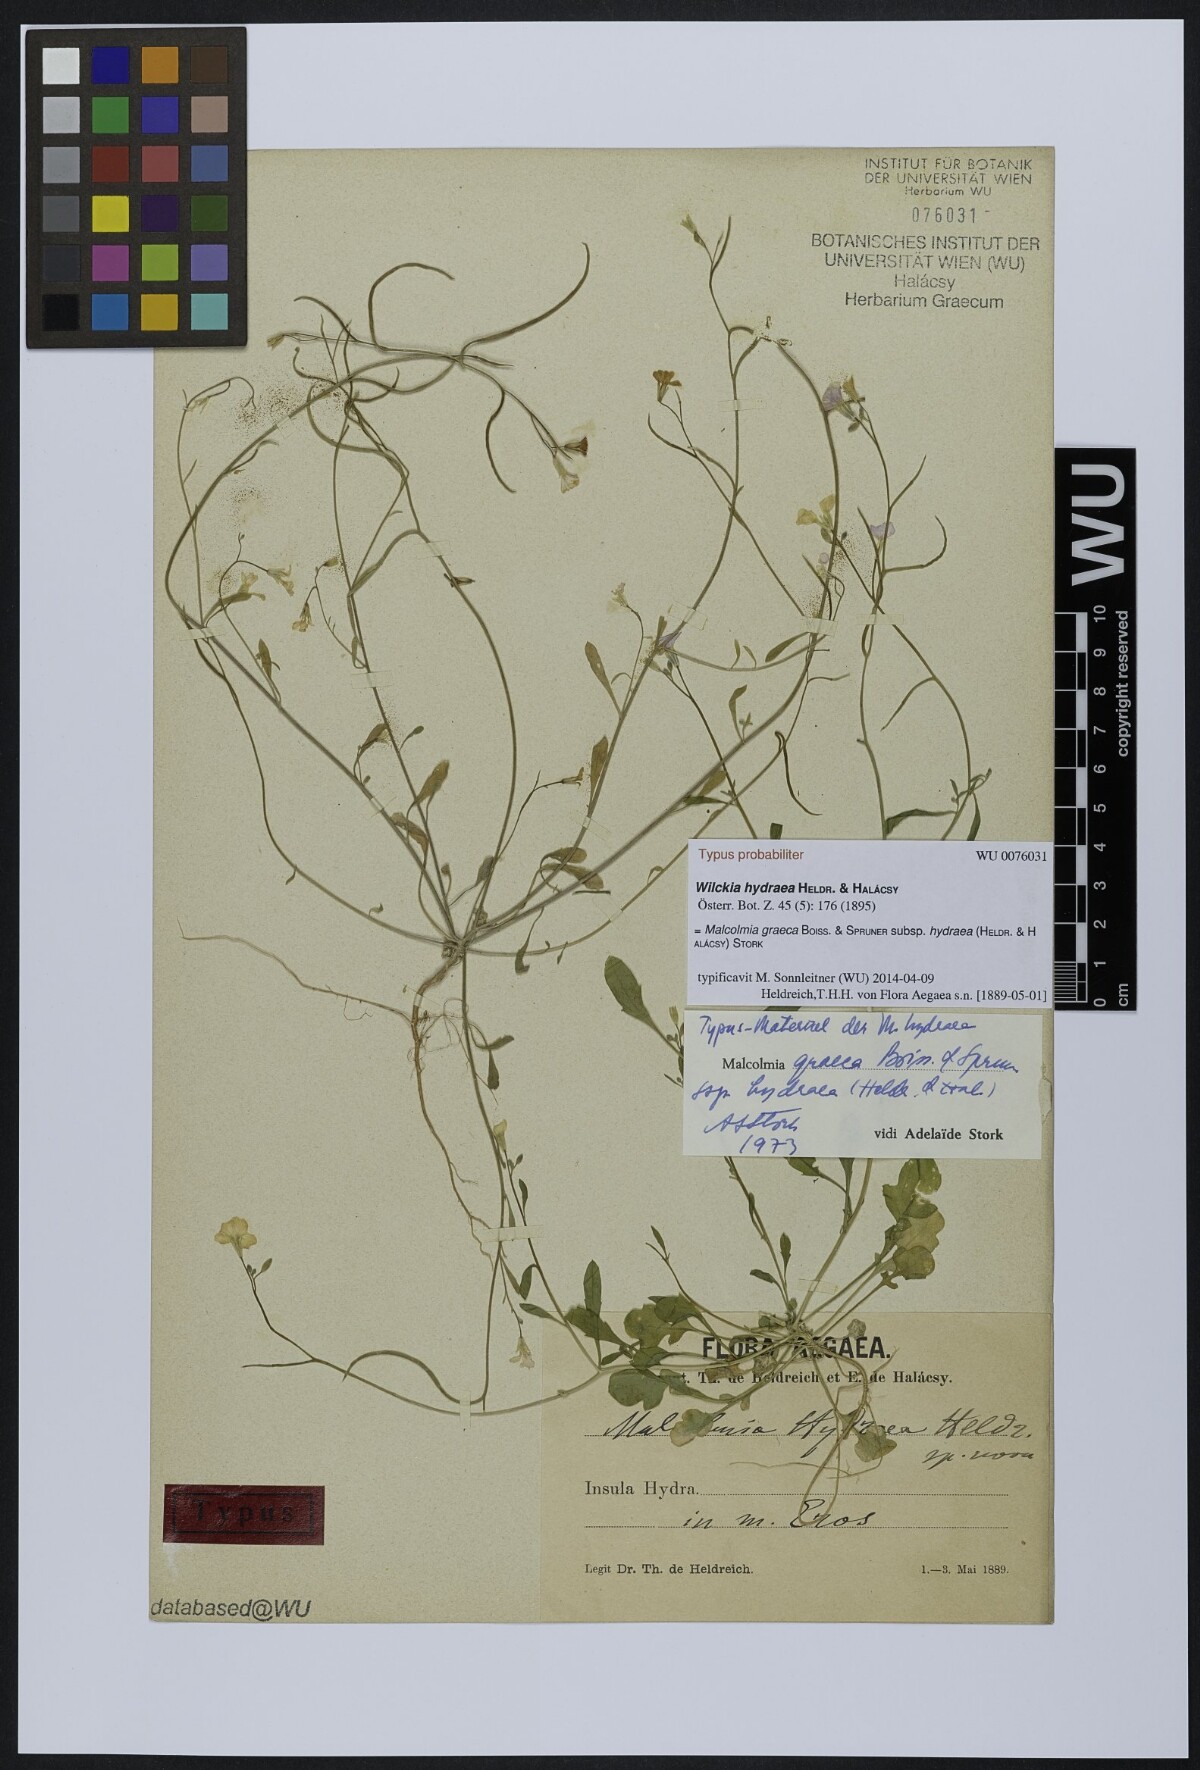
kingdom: Plantae
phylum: Tracheophyta
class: Magnoliopsida
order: Brassicales
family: Brassicaceae
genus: Malcolmia
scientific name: Malcolmia graeca
